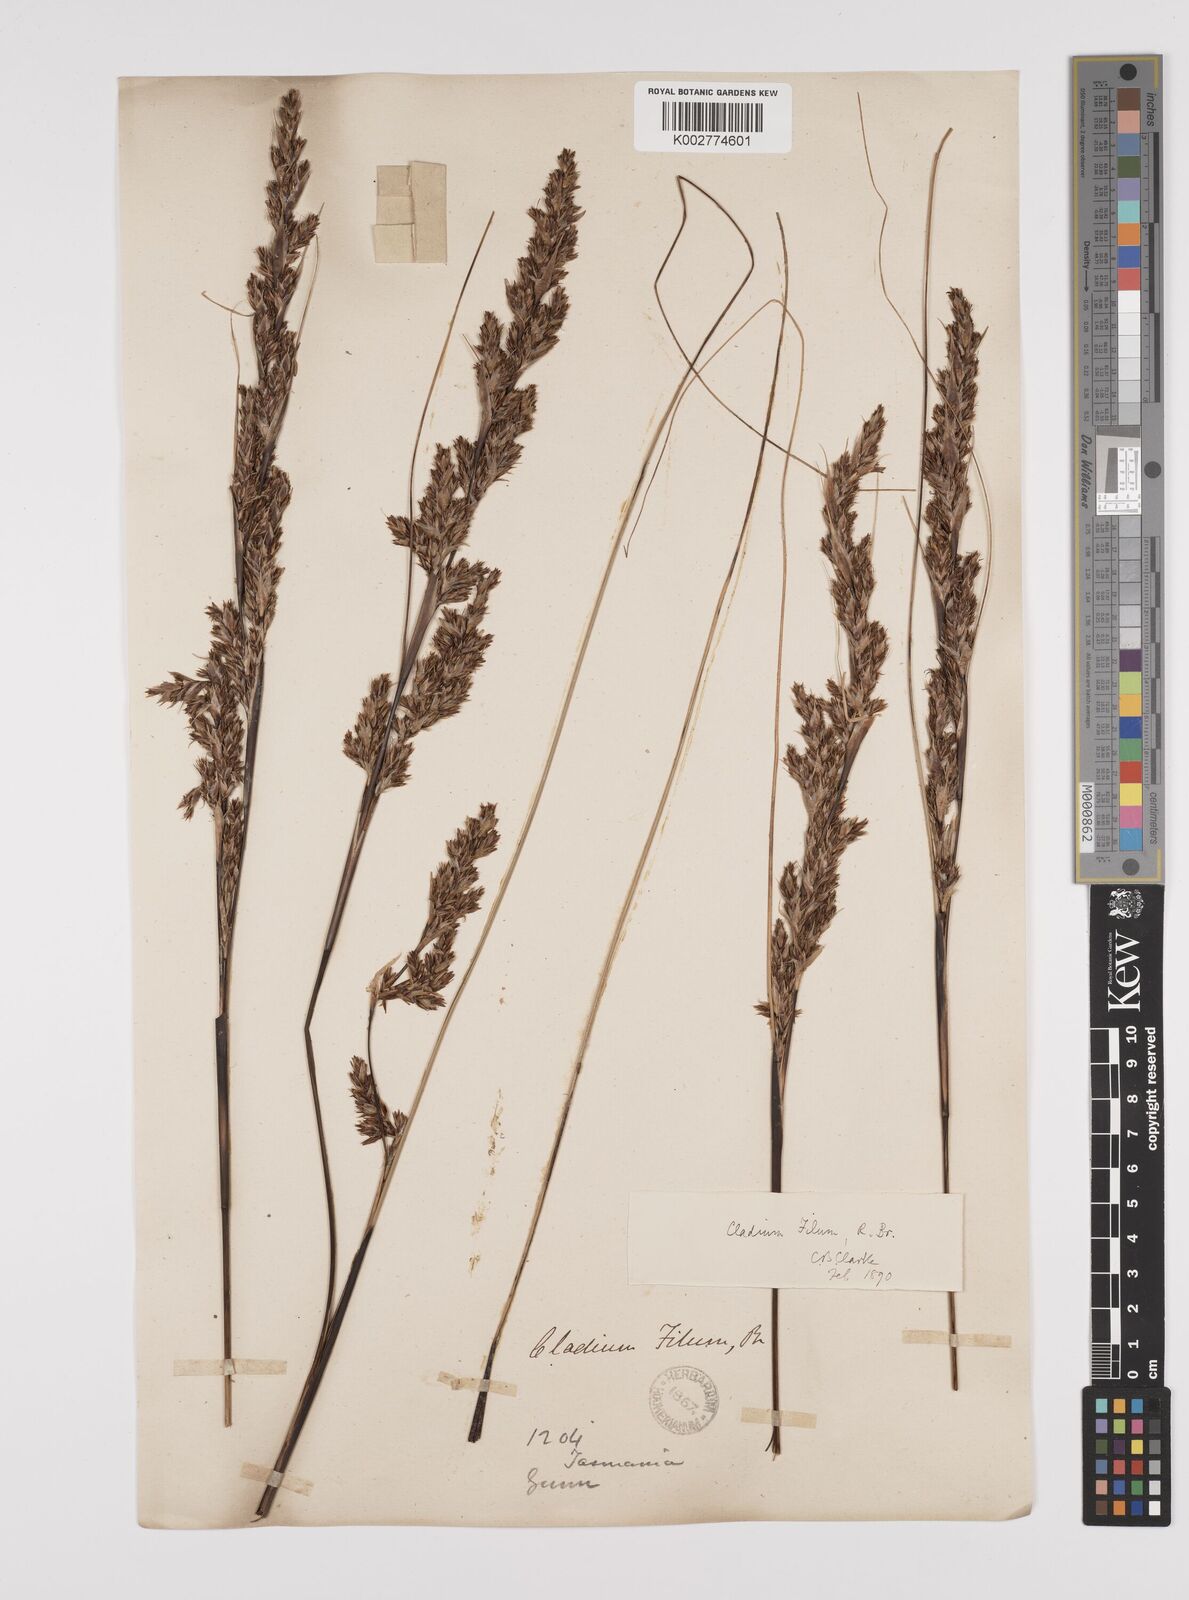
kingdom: Plantae
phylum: Tracheophyta
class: Liliopsida
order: Poales
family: Cyperaceae
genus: Gahnia
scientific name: Gahnia filum
